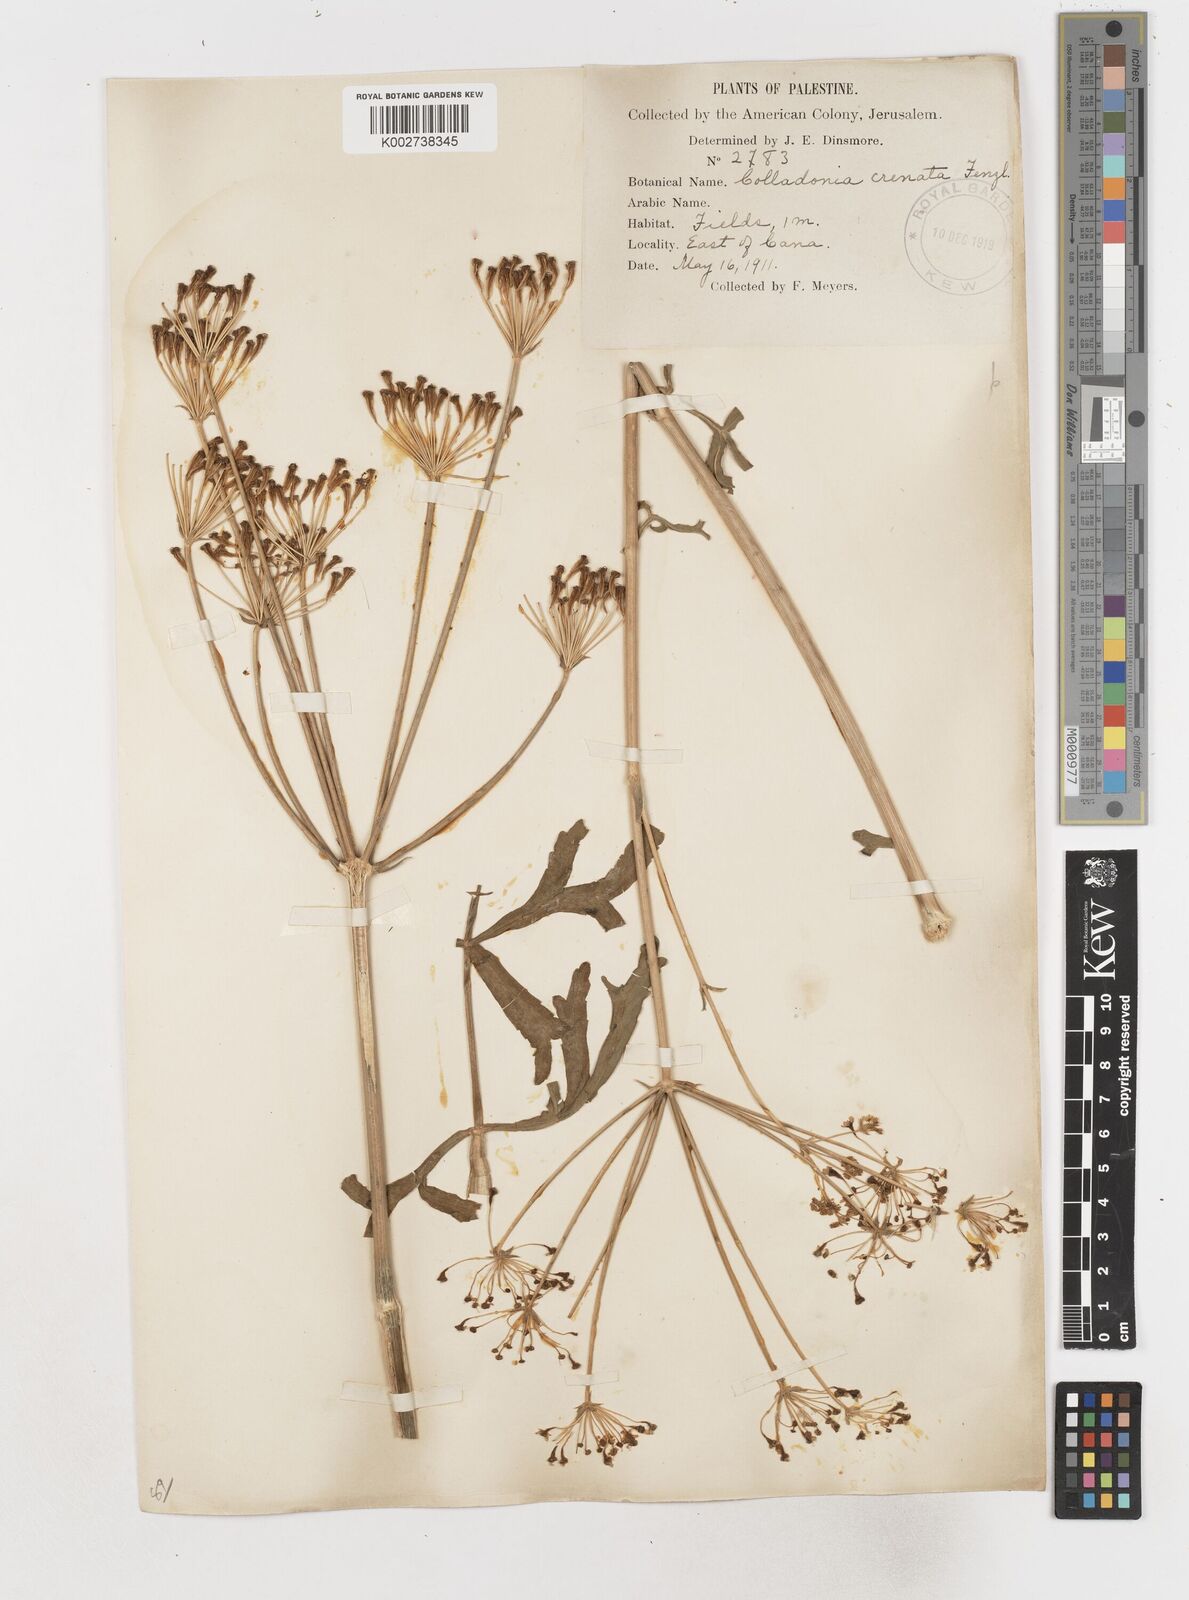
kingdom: Plantae
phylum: Tracheophyta
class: Magnoliopsida
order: Apiales
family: Apiaceae
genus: Heptaptera
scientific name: Heptaptera anisoptera
